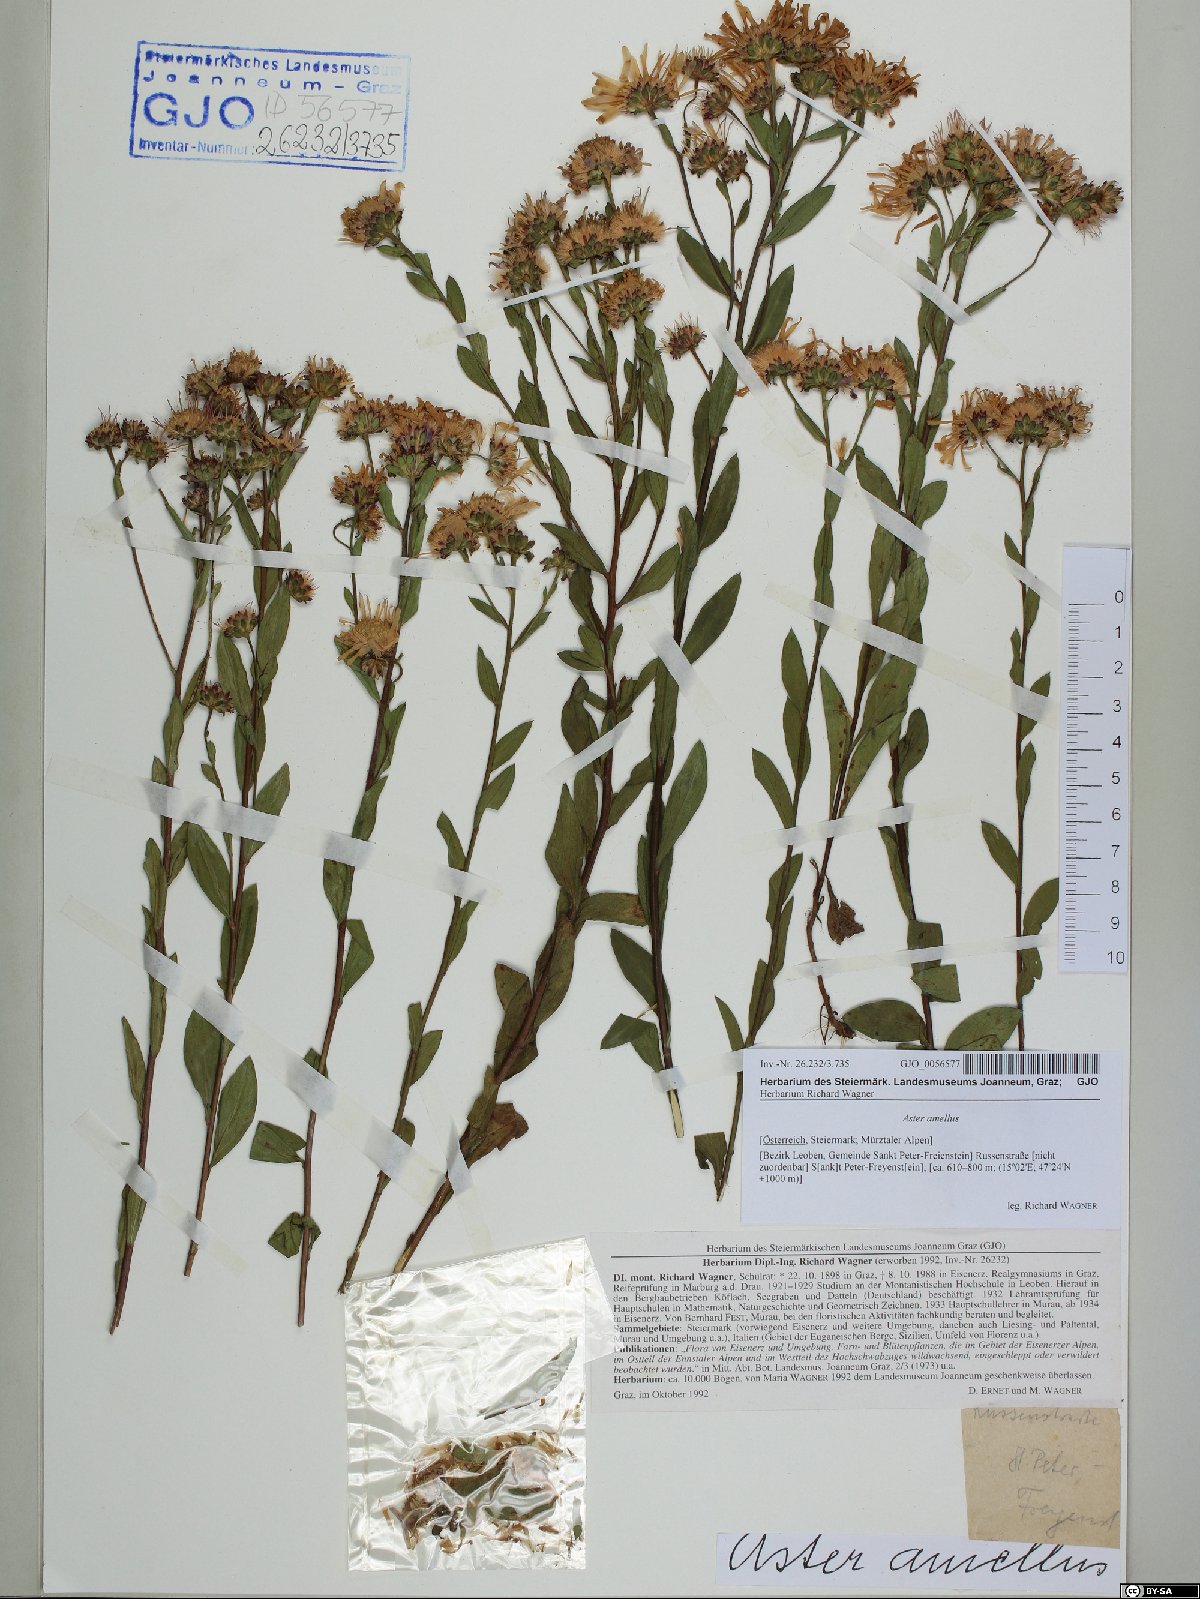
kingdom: Plantae
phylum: Tracheophyta
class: Magnoliopsida
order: Asterales
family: Asteraceae
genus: Aster
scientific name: Aster amellus
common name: European michaelmas daisy
